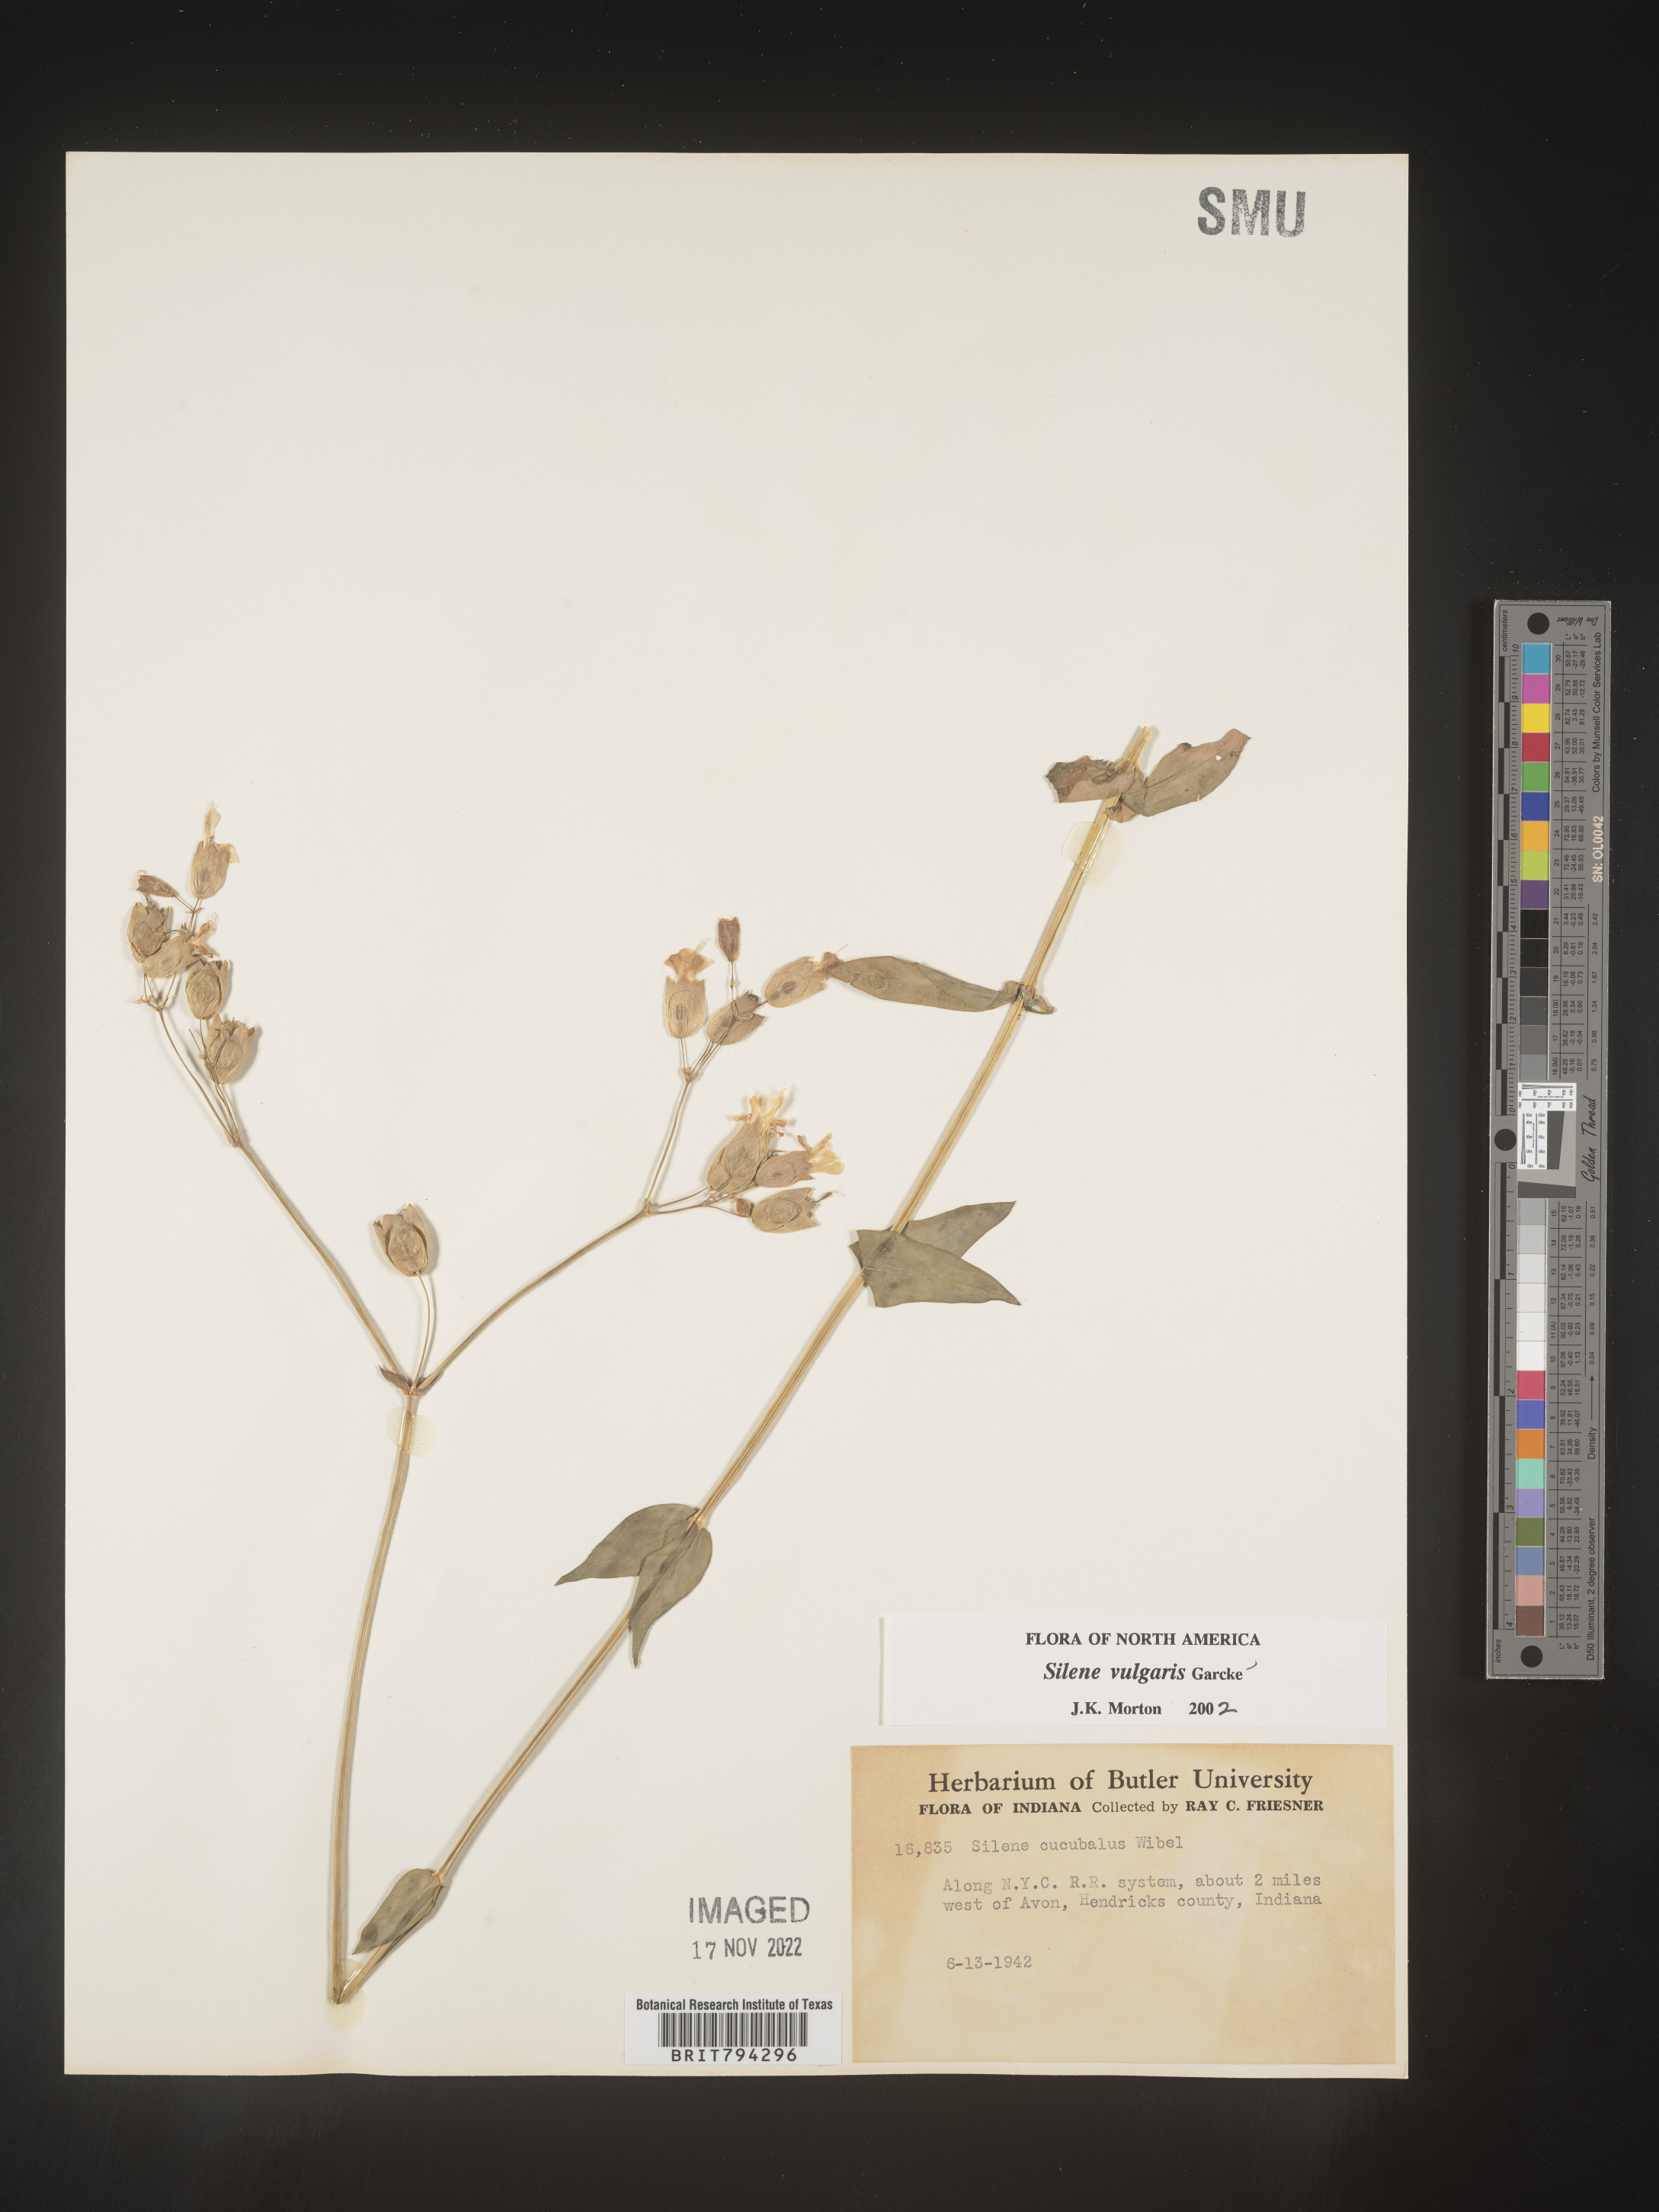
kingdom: Plantae
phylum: Tracheophyta
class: Magnoliopsida
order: Caryophyllales
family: Caryophyllaceae
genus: Silene
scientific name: Silene vulgaris
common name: Bladder campion
